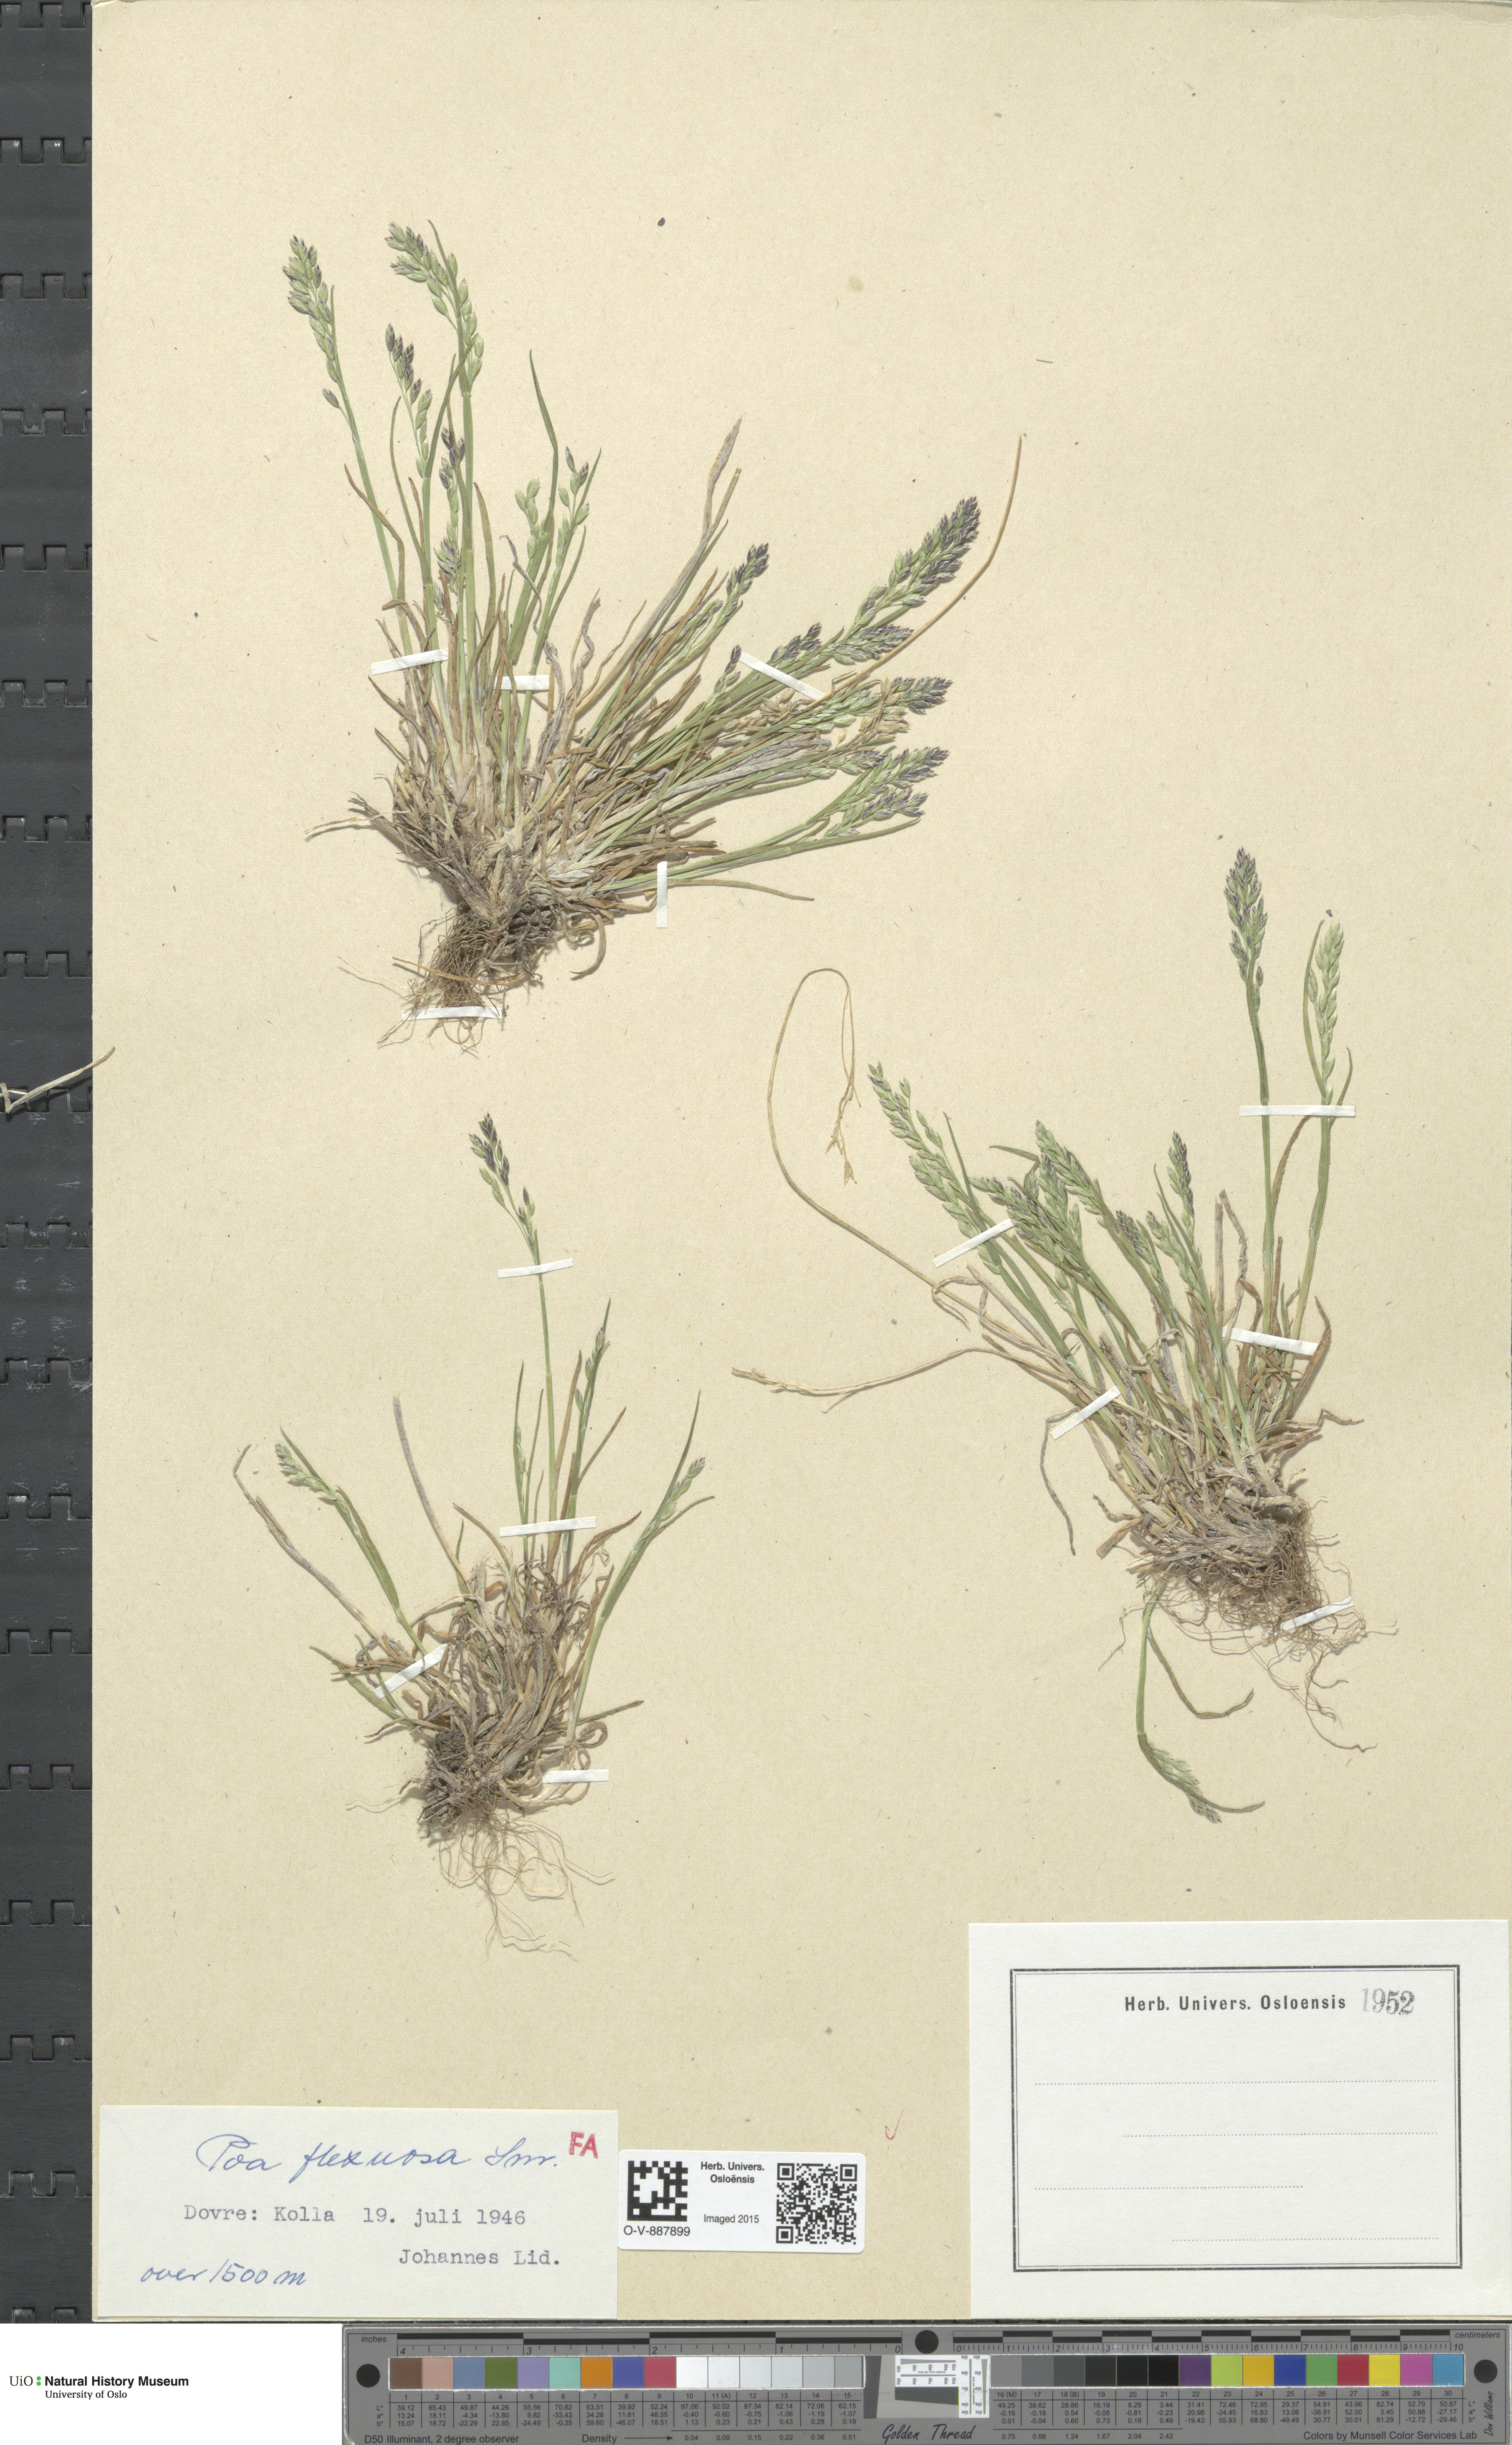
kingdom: Plantae
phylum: Tracheophyta
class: Liliopsida
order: Poales
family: Poaceae
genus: Poa
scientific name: Poa flexuosa
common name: Wavy meadow-grass
